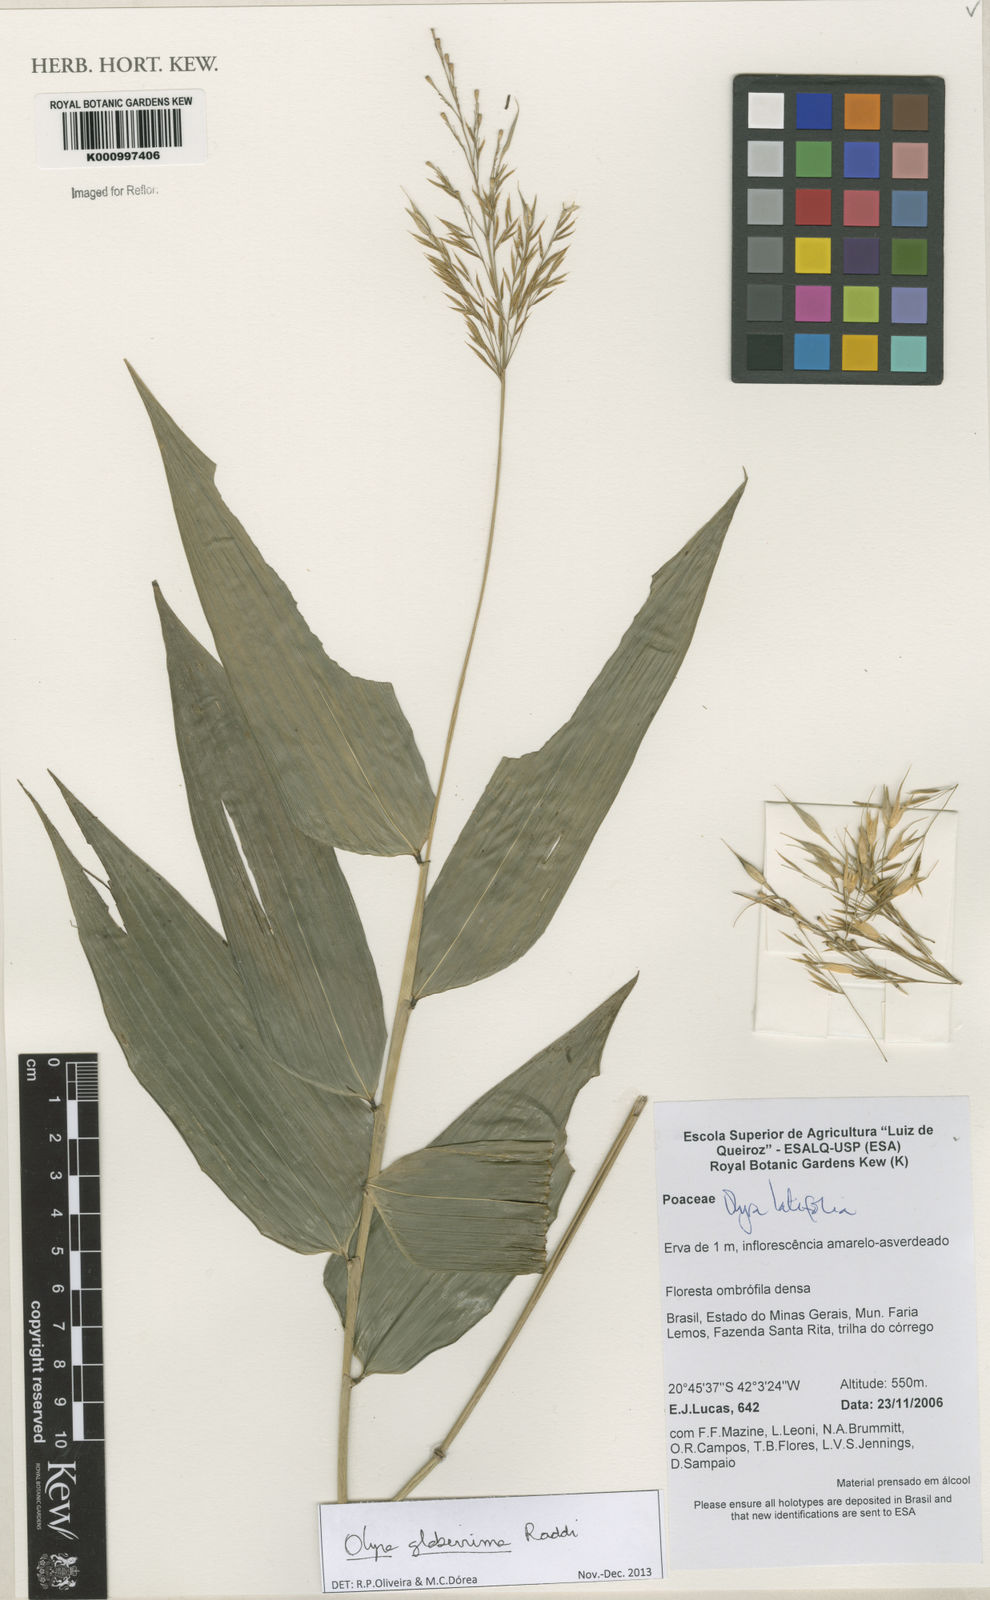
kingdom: Plantae
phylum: Tracheophyta
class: Liliopsida
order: Poales
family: Poaceae
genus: Olyra
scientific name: Olyra glaberrima
